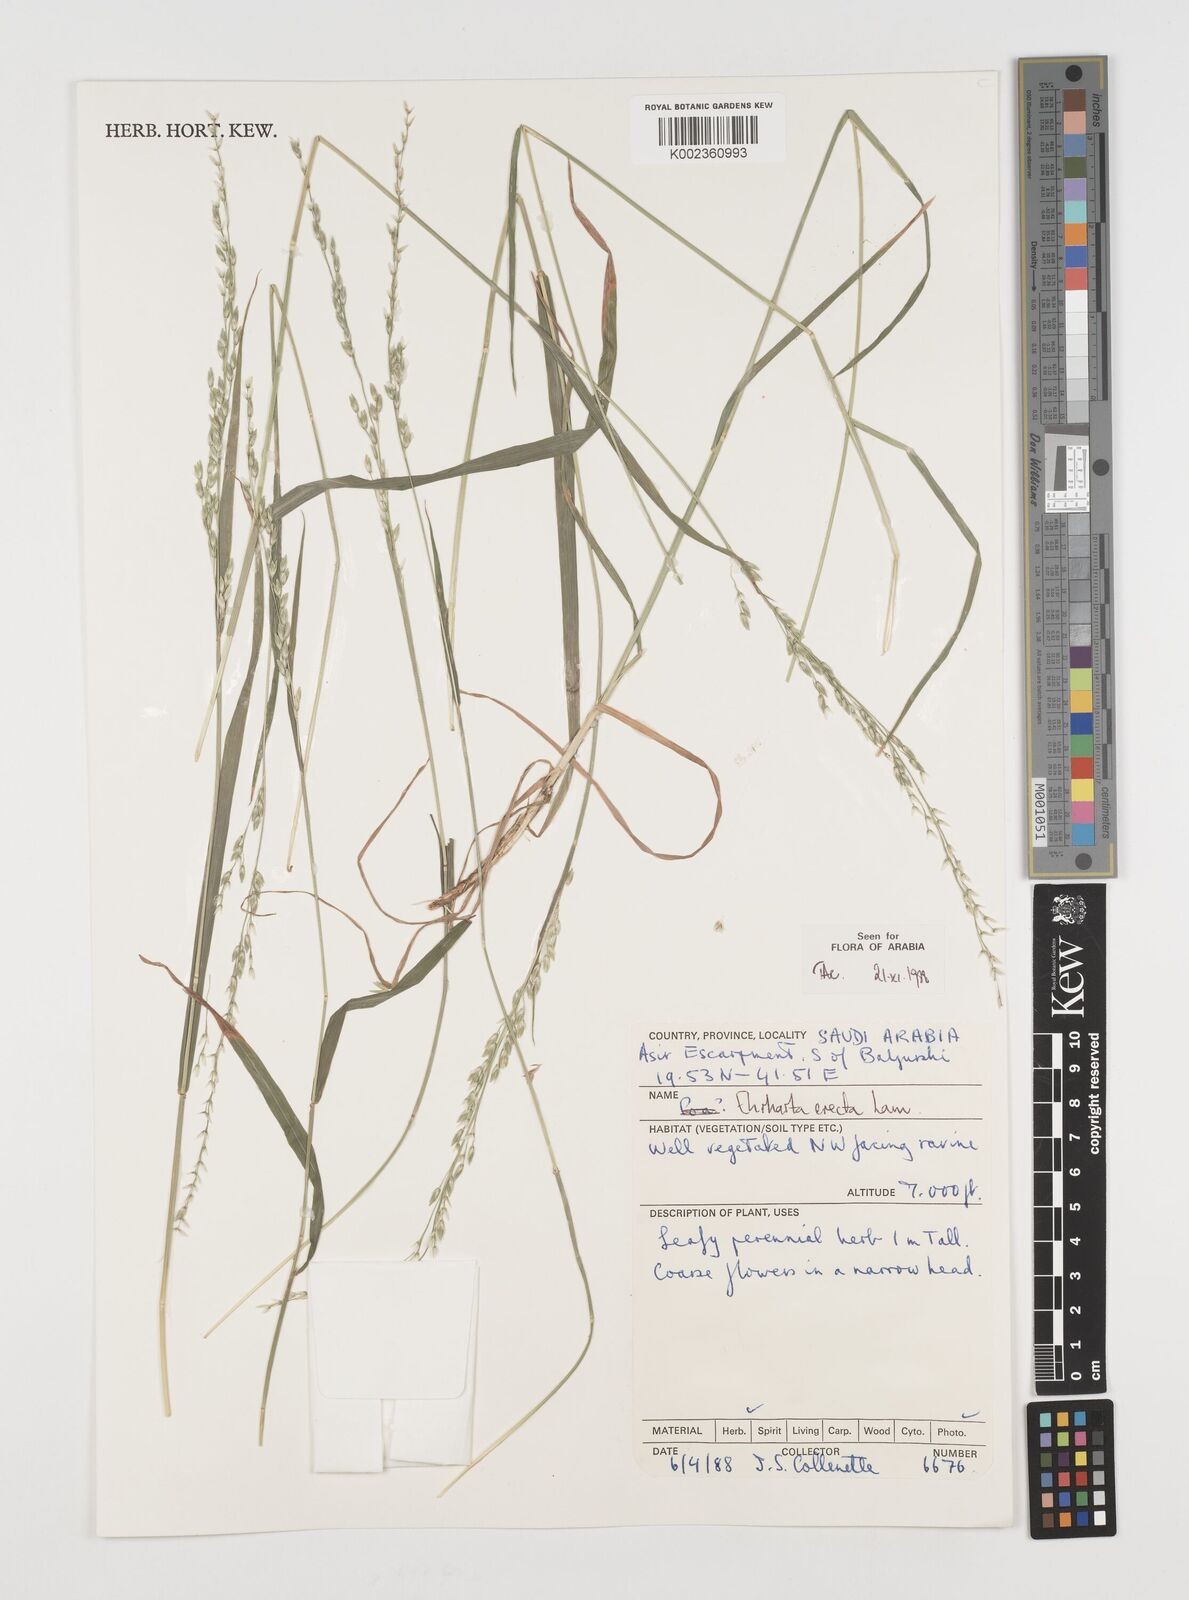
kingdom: Plantae
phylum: Tracheophyta
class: Liliopsida
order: Poales
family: Poaceae
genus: Ehrharta
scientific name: Ehrharta erecta
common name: Panic veldtgrass
